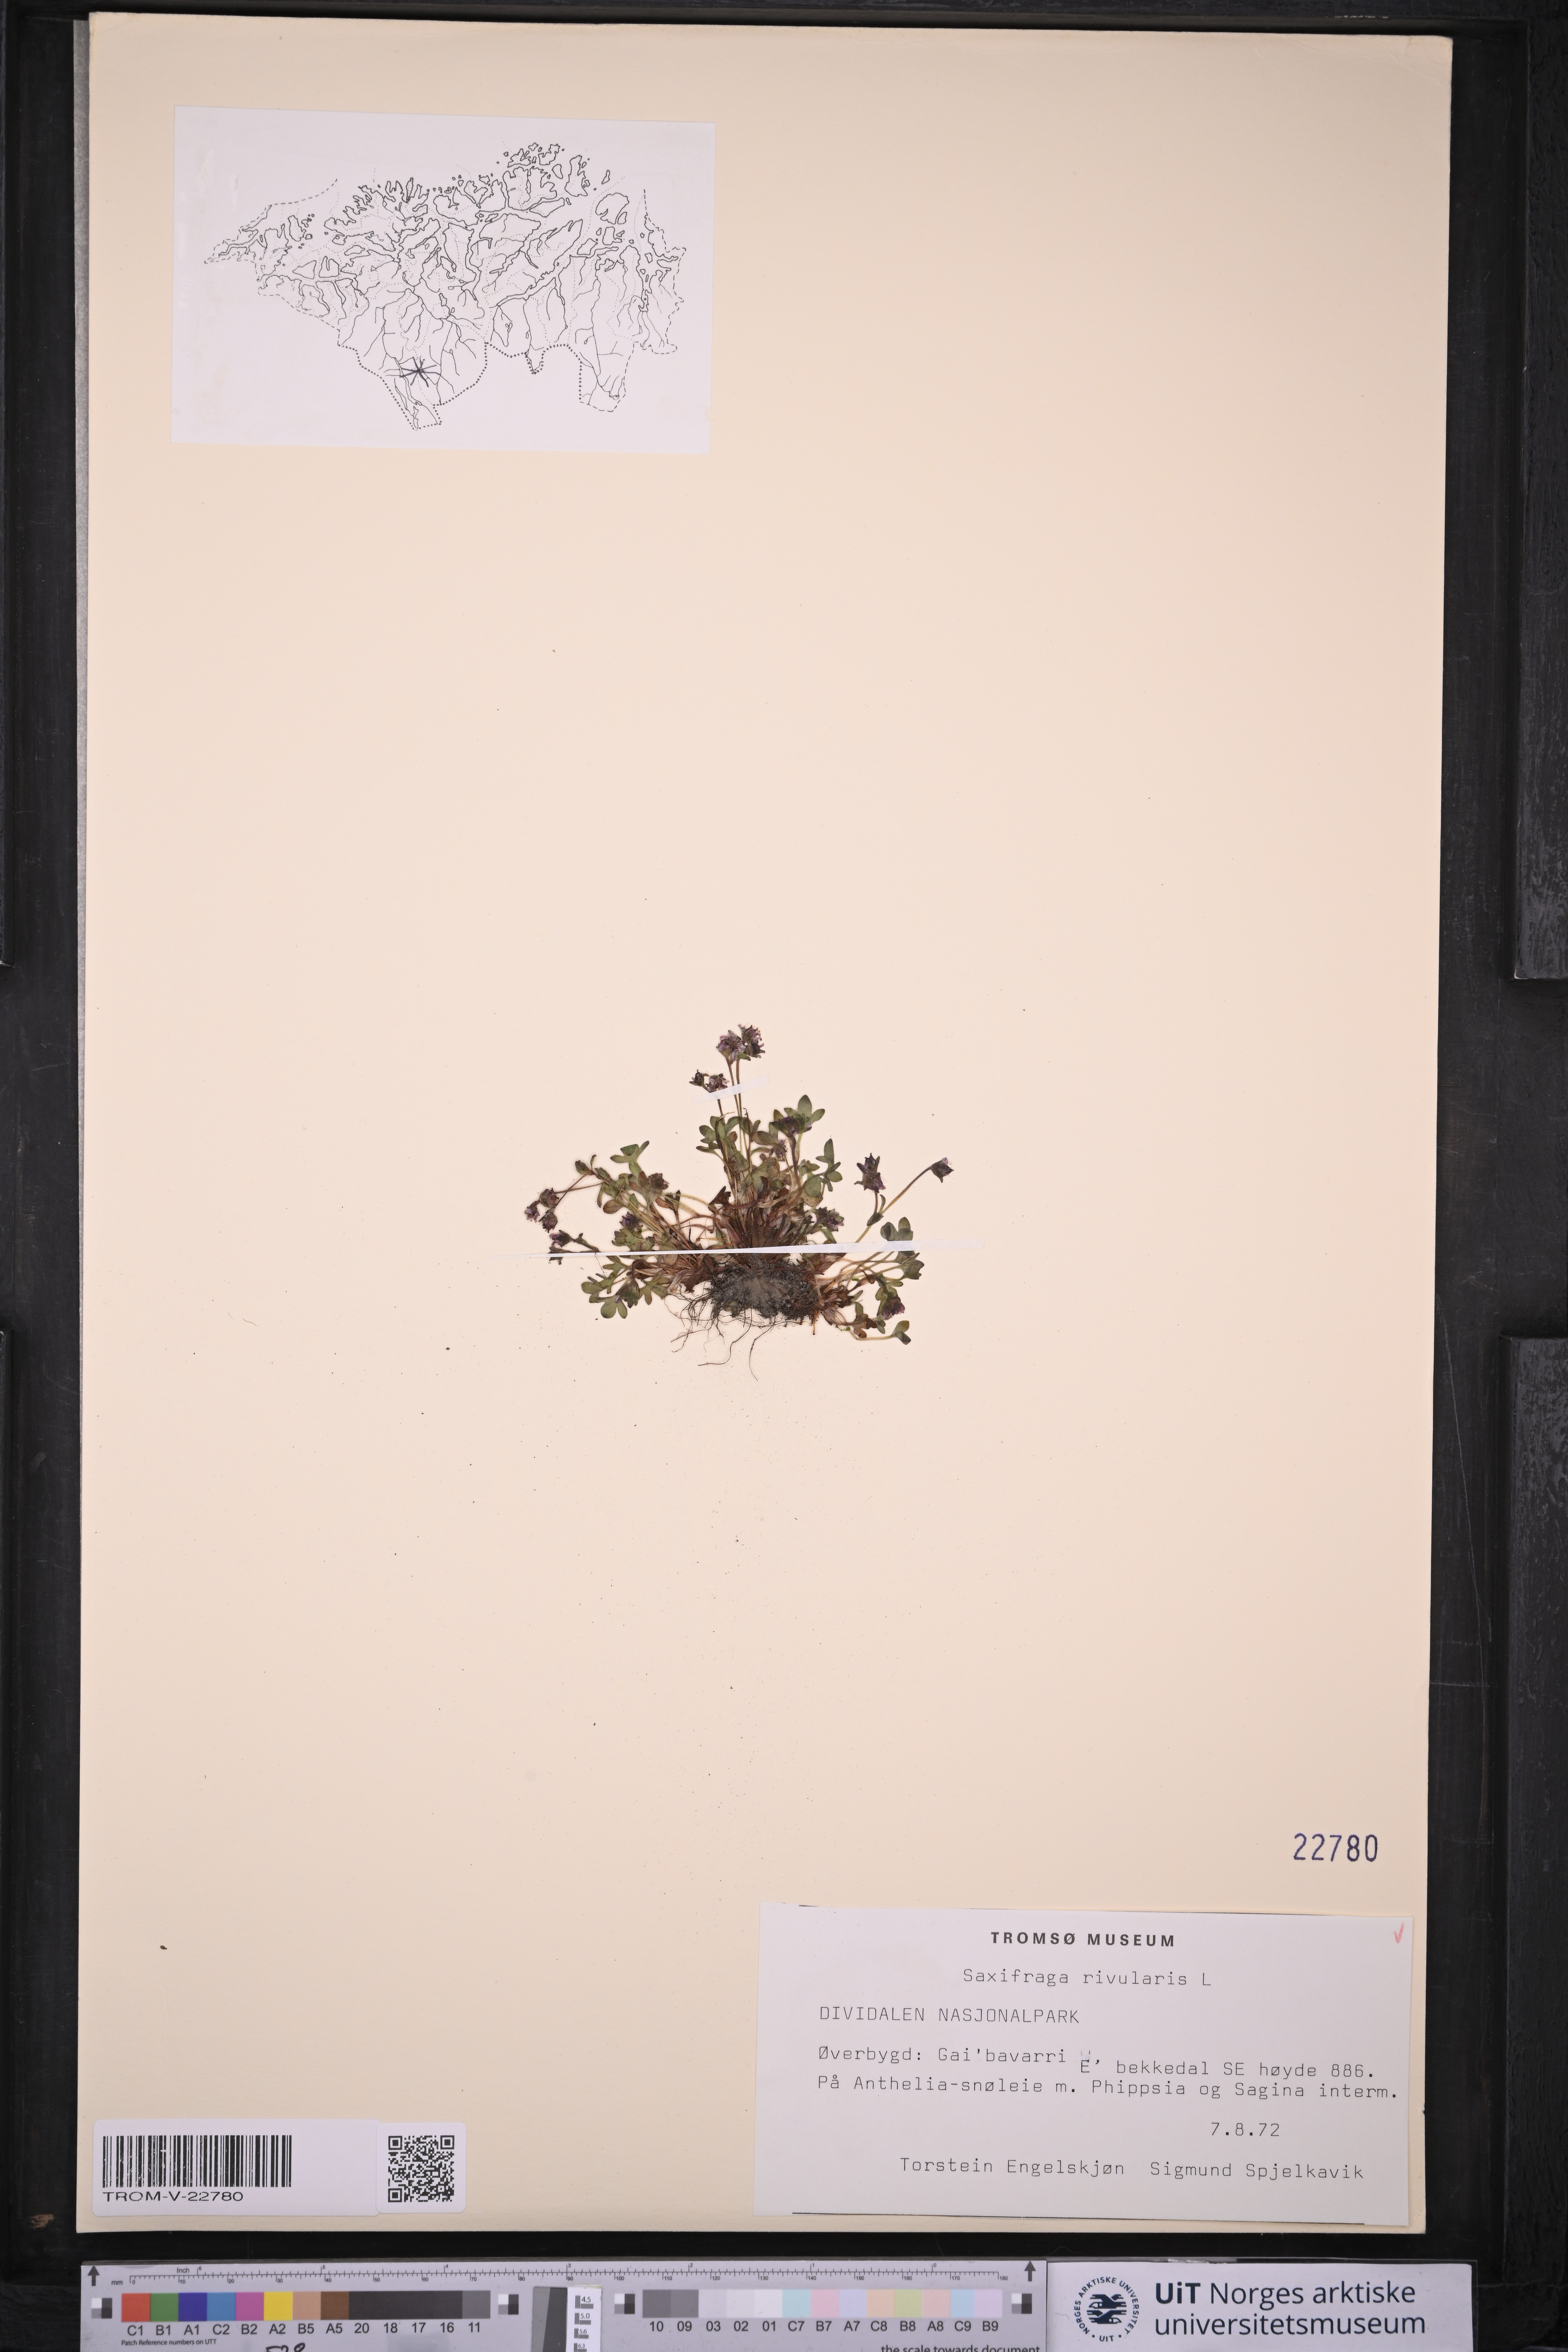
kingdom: Plantae
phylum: Tracheophyta
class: Magnoliopsida
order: Saxifragales
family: Saxifragaceae
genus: Saxifraga
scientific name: Saxifraga rivularis
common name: Highland saxifrage
